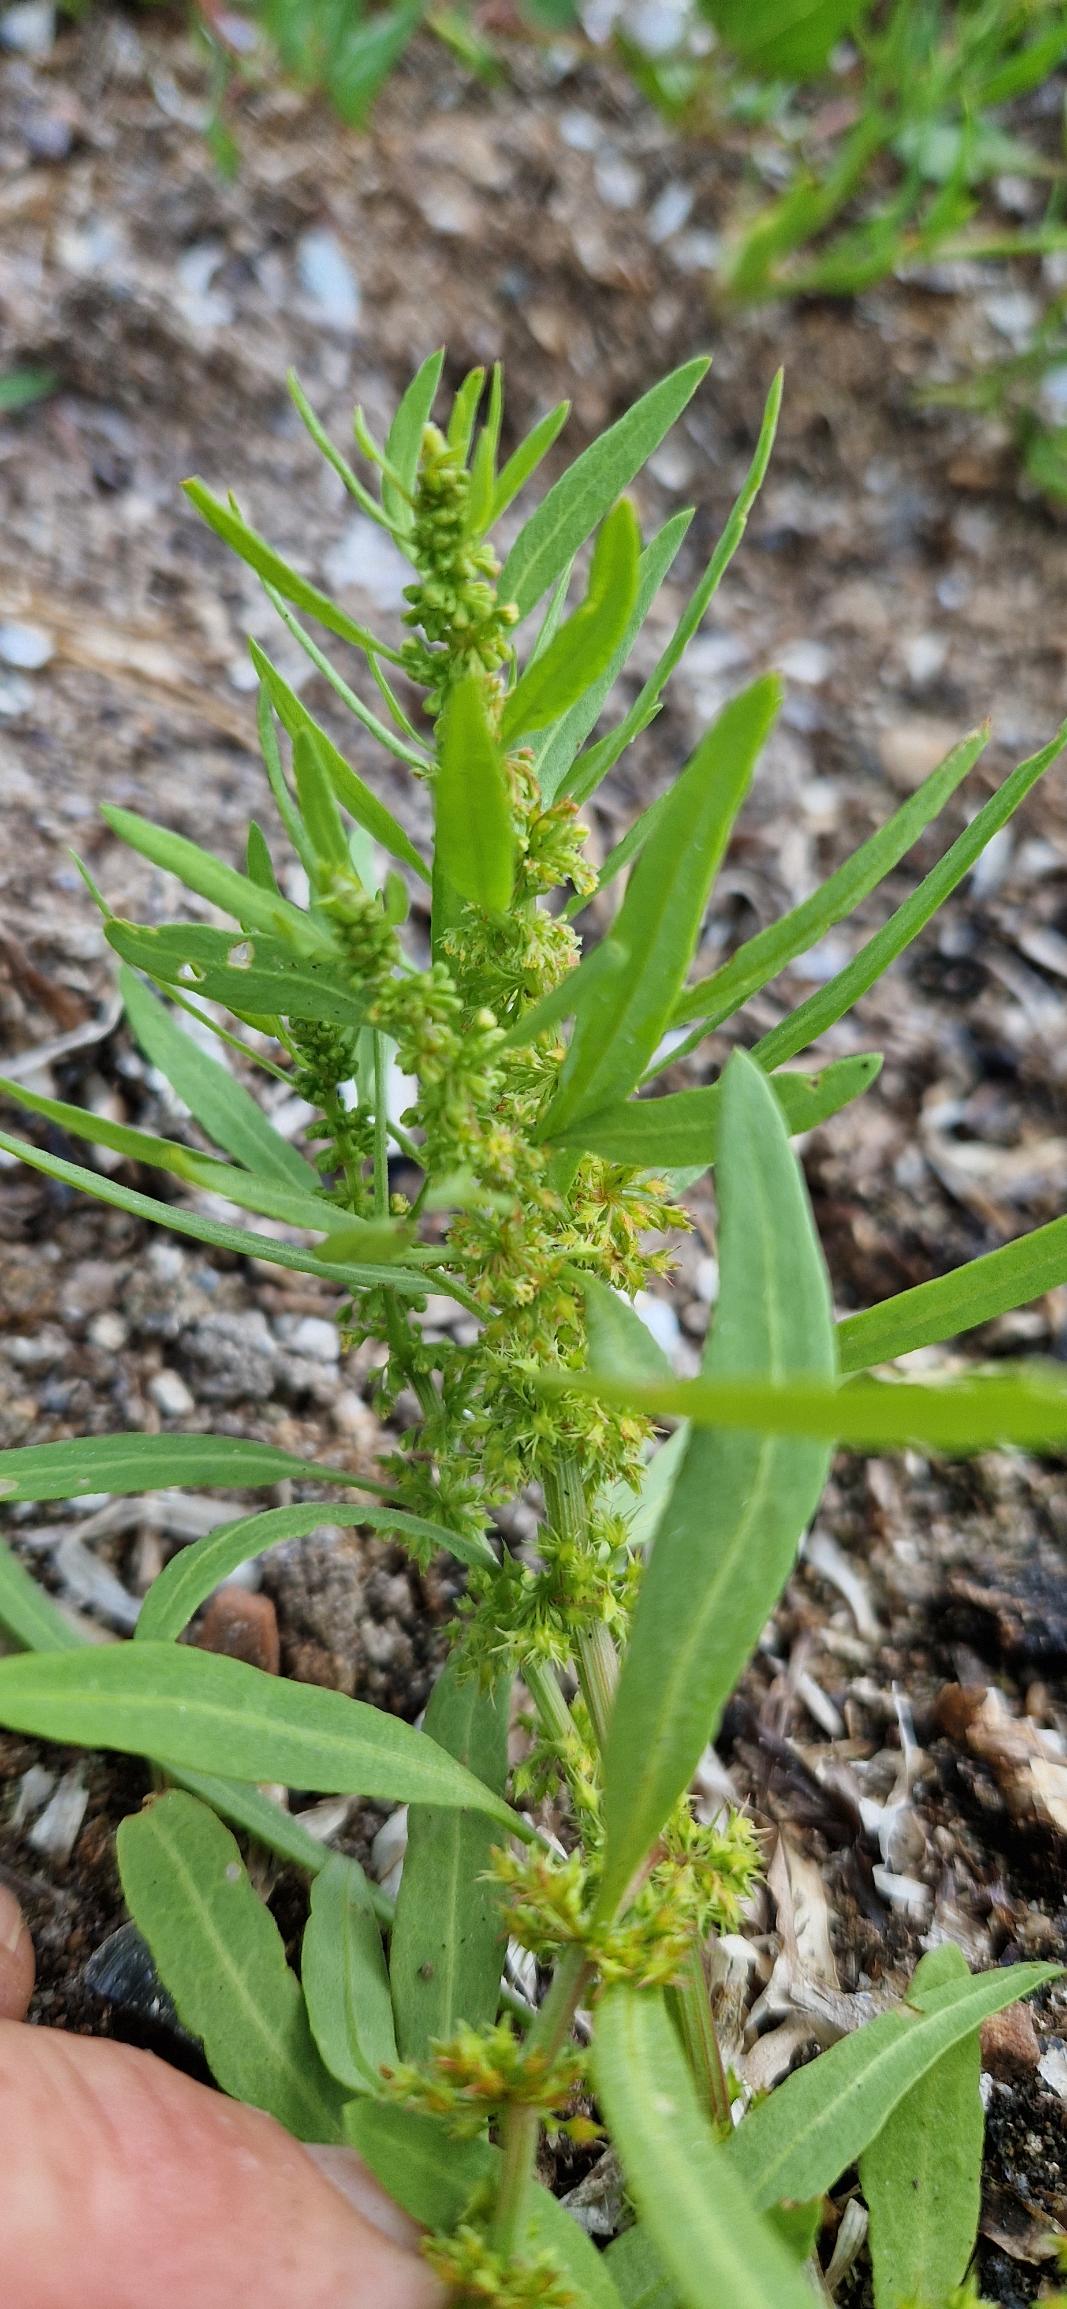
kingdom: Plantae
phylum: Tracheophyta
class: Magnoliopsida
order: Caryophyllales
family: Polygonaceae
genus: Rumex
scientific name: Rumex maritimus
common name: Strand-skræppe
